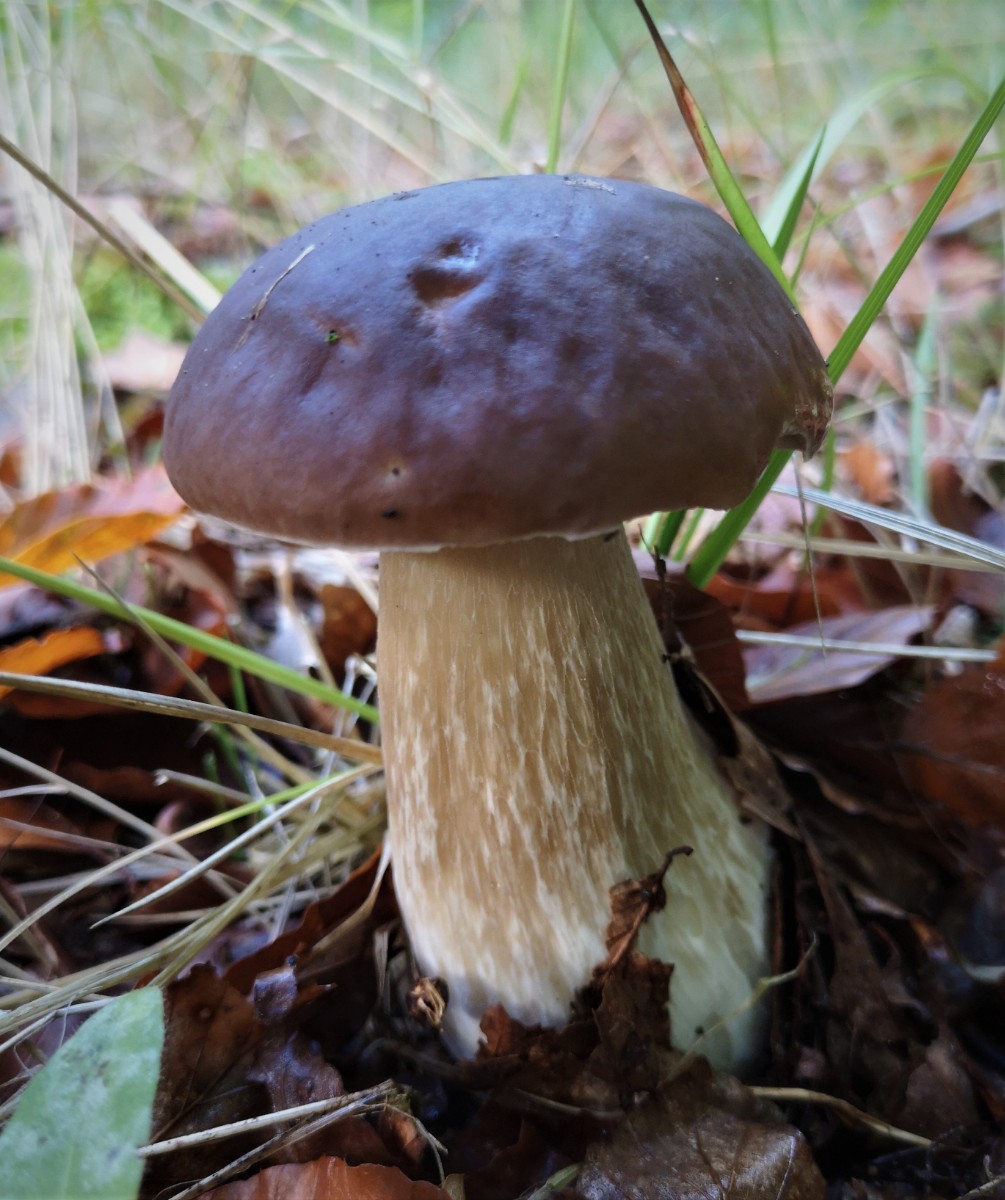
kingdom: Fungi
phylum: Basidiomycota
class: Agaricomycetes
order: Boletales
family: Boletaceae
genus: Boletus
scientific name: Boletus edulis
